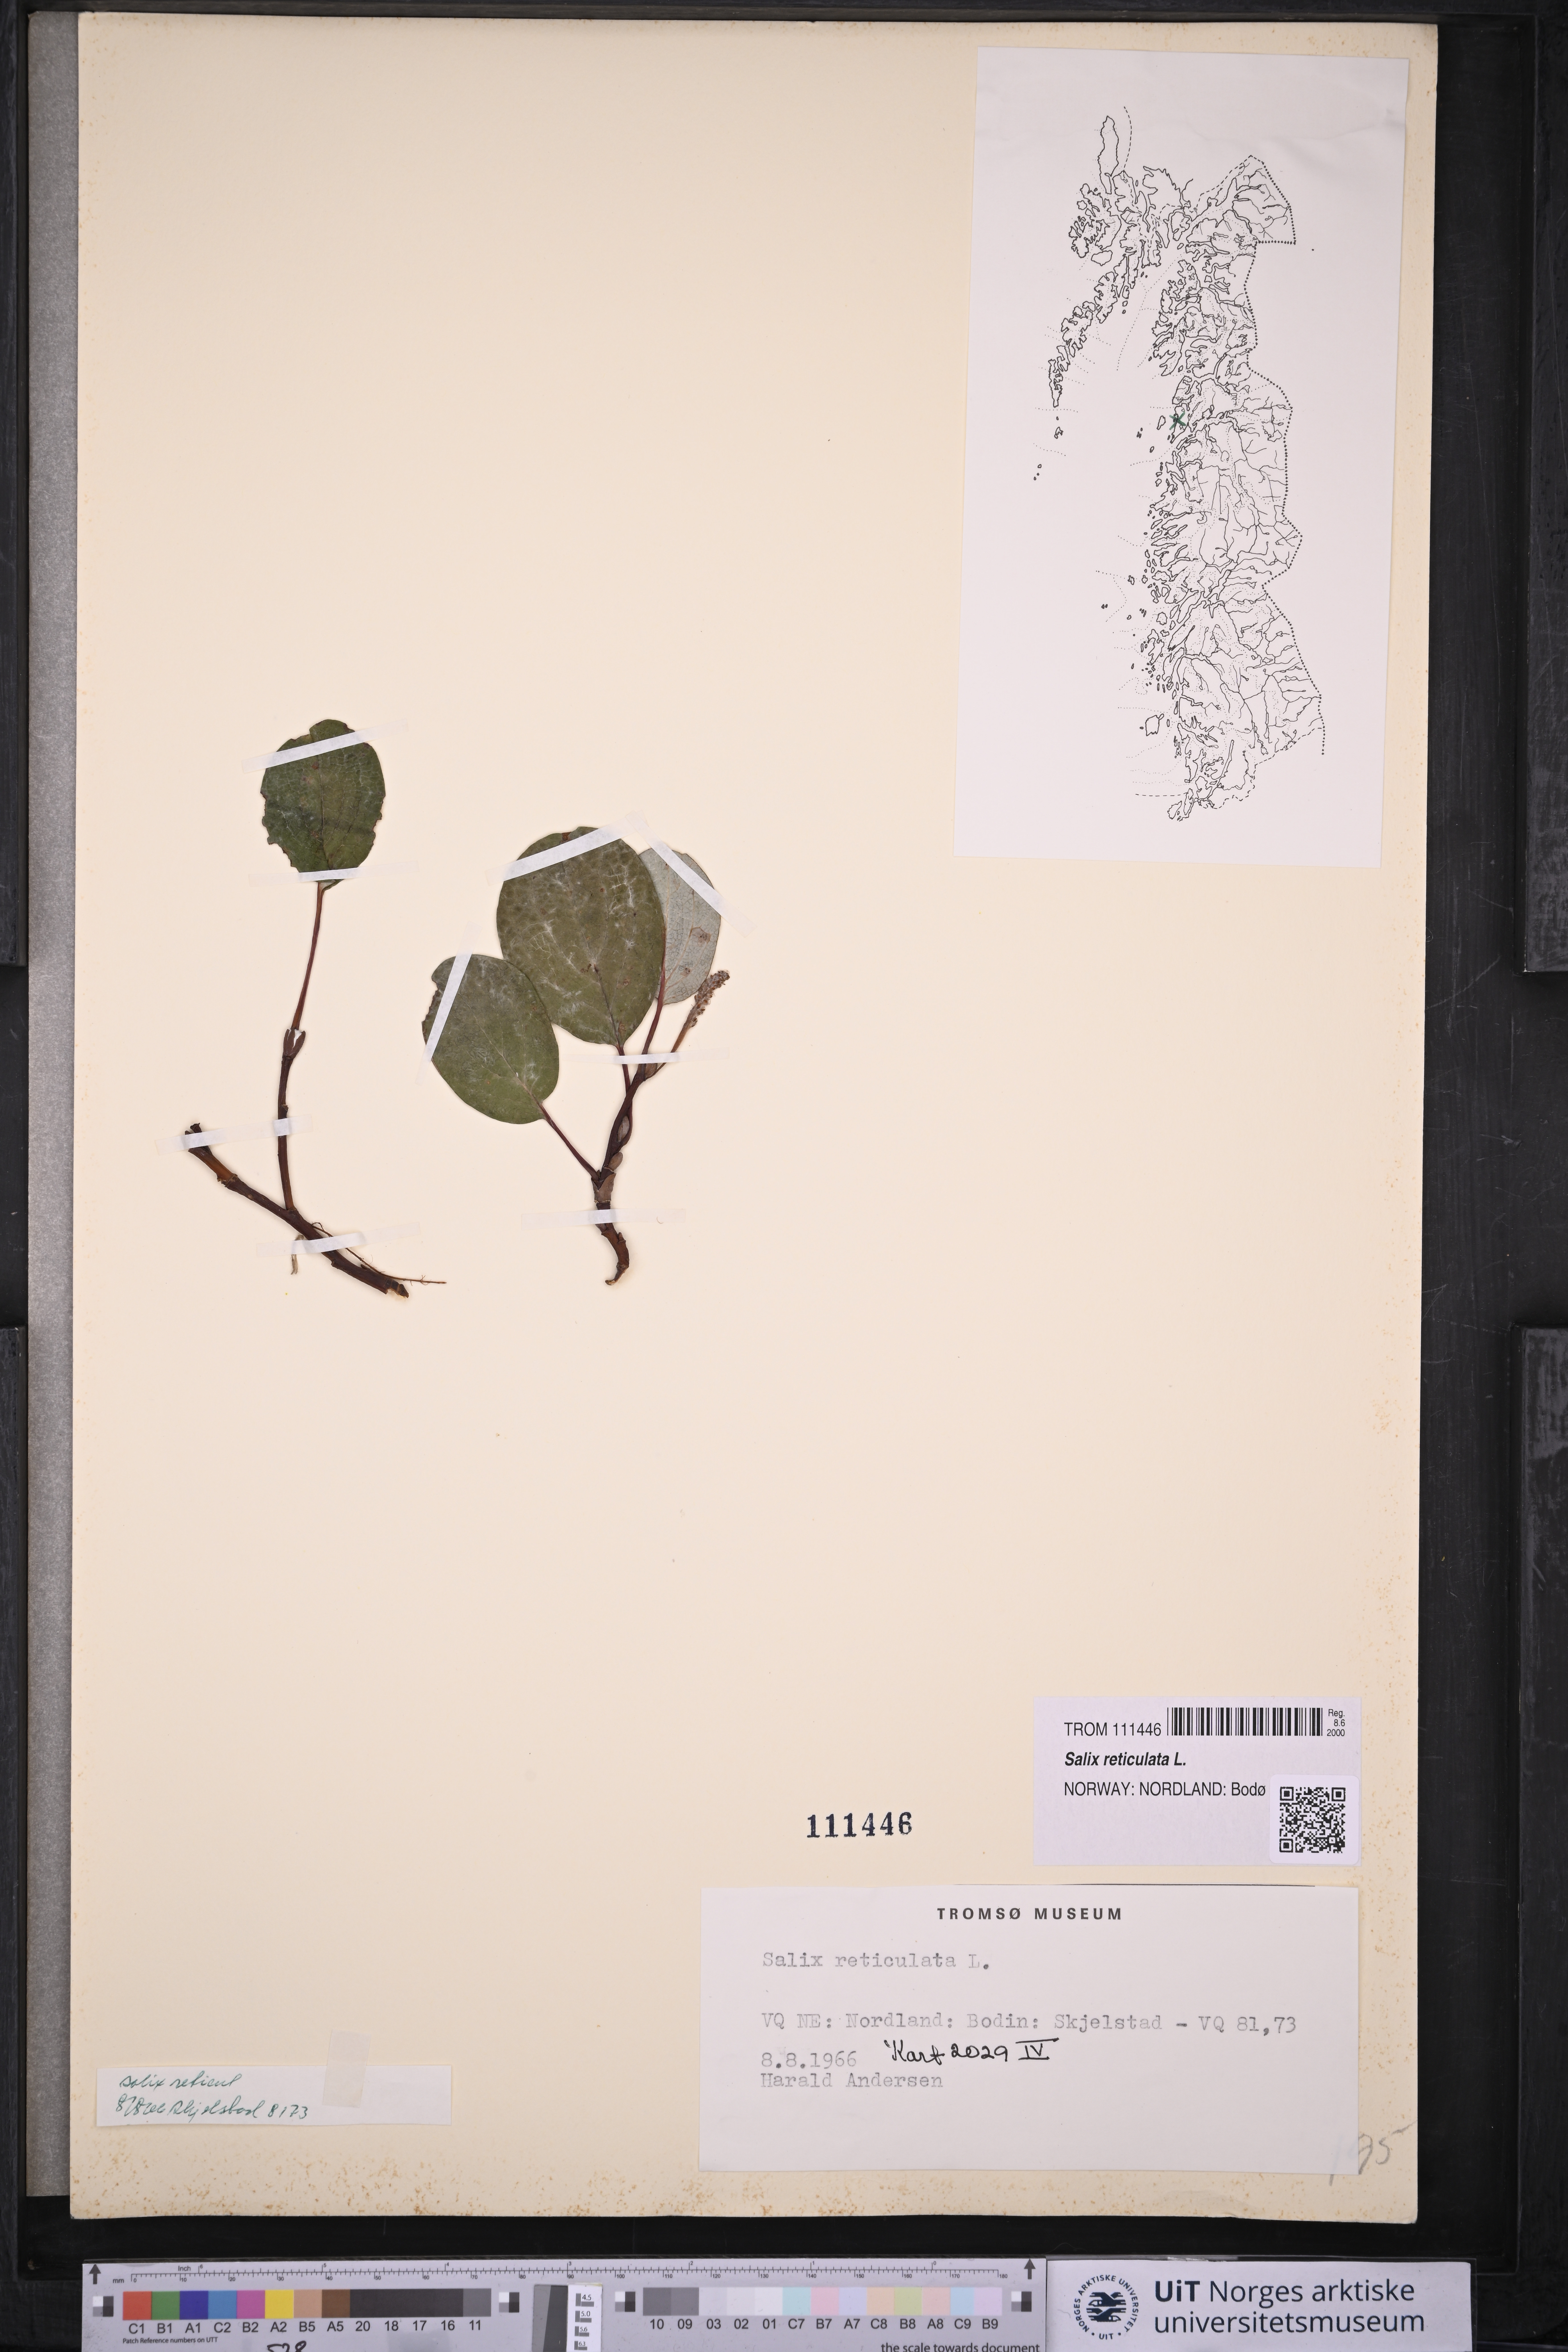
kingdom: Plantae
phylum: Tracheophyta
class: Magnoliopsida
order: Malpighiales
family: Salicaceae
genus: Salix
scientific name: Salix reticulata
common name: Net-leaved willow
